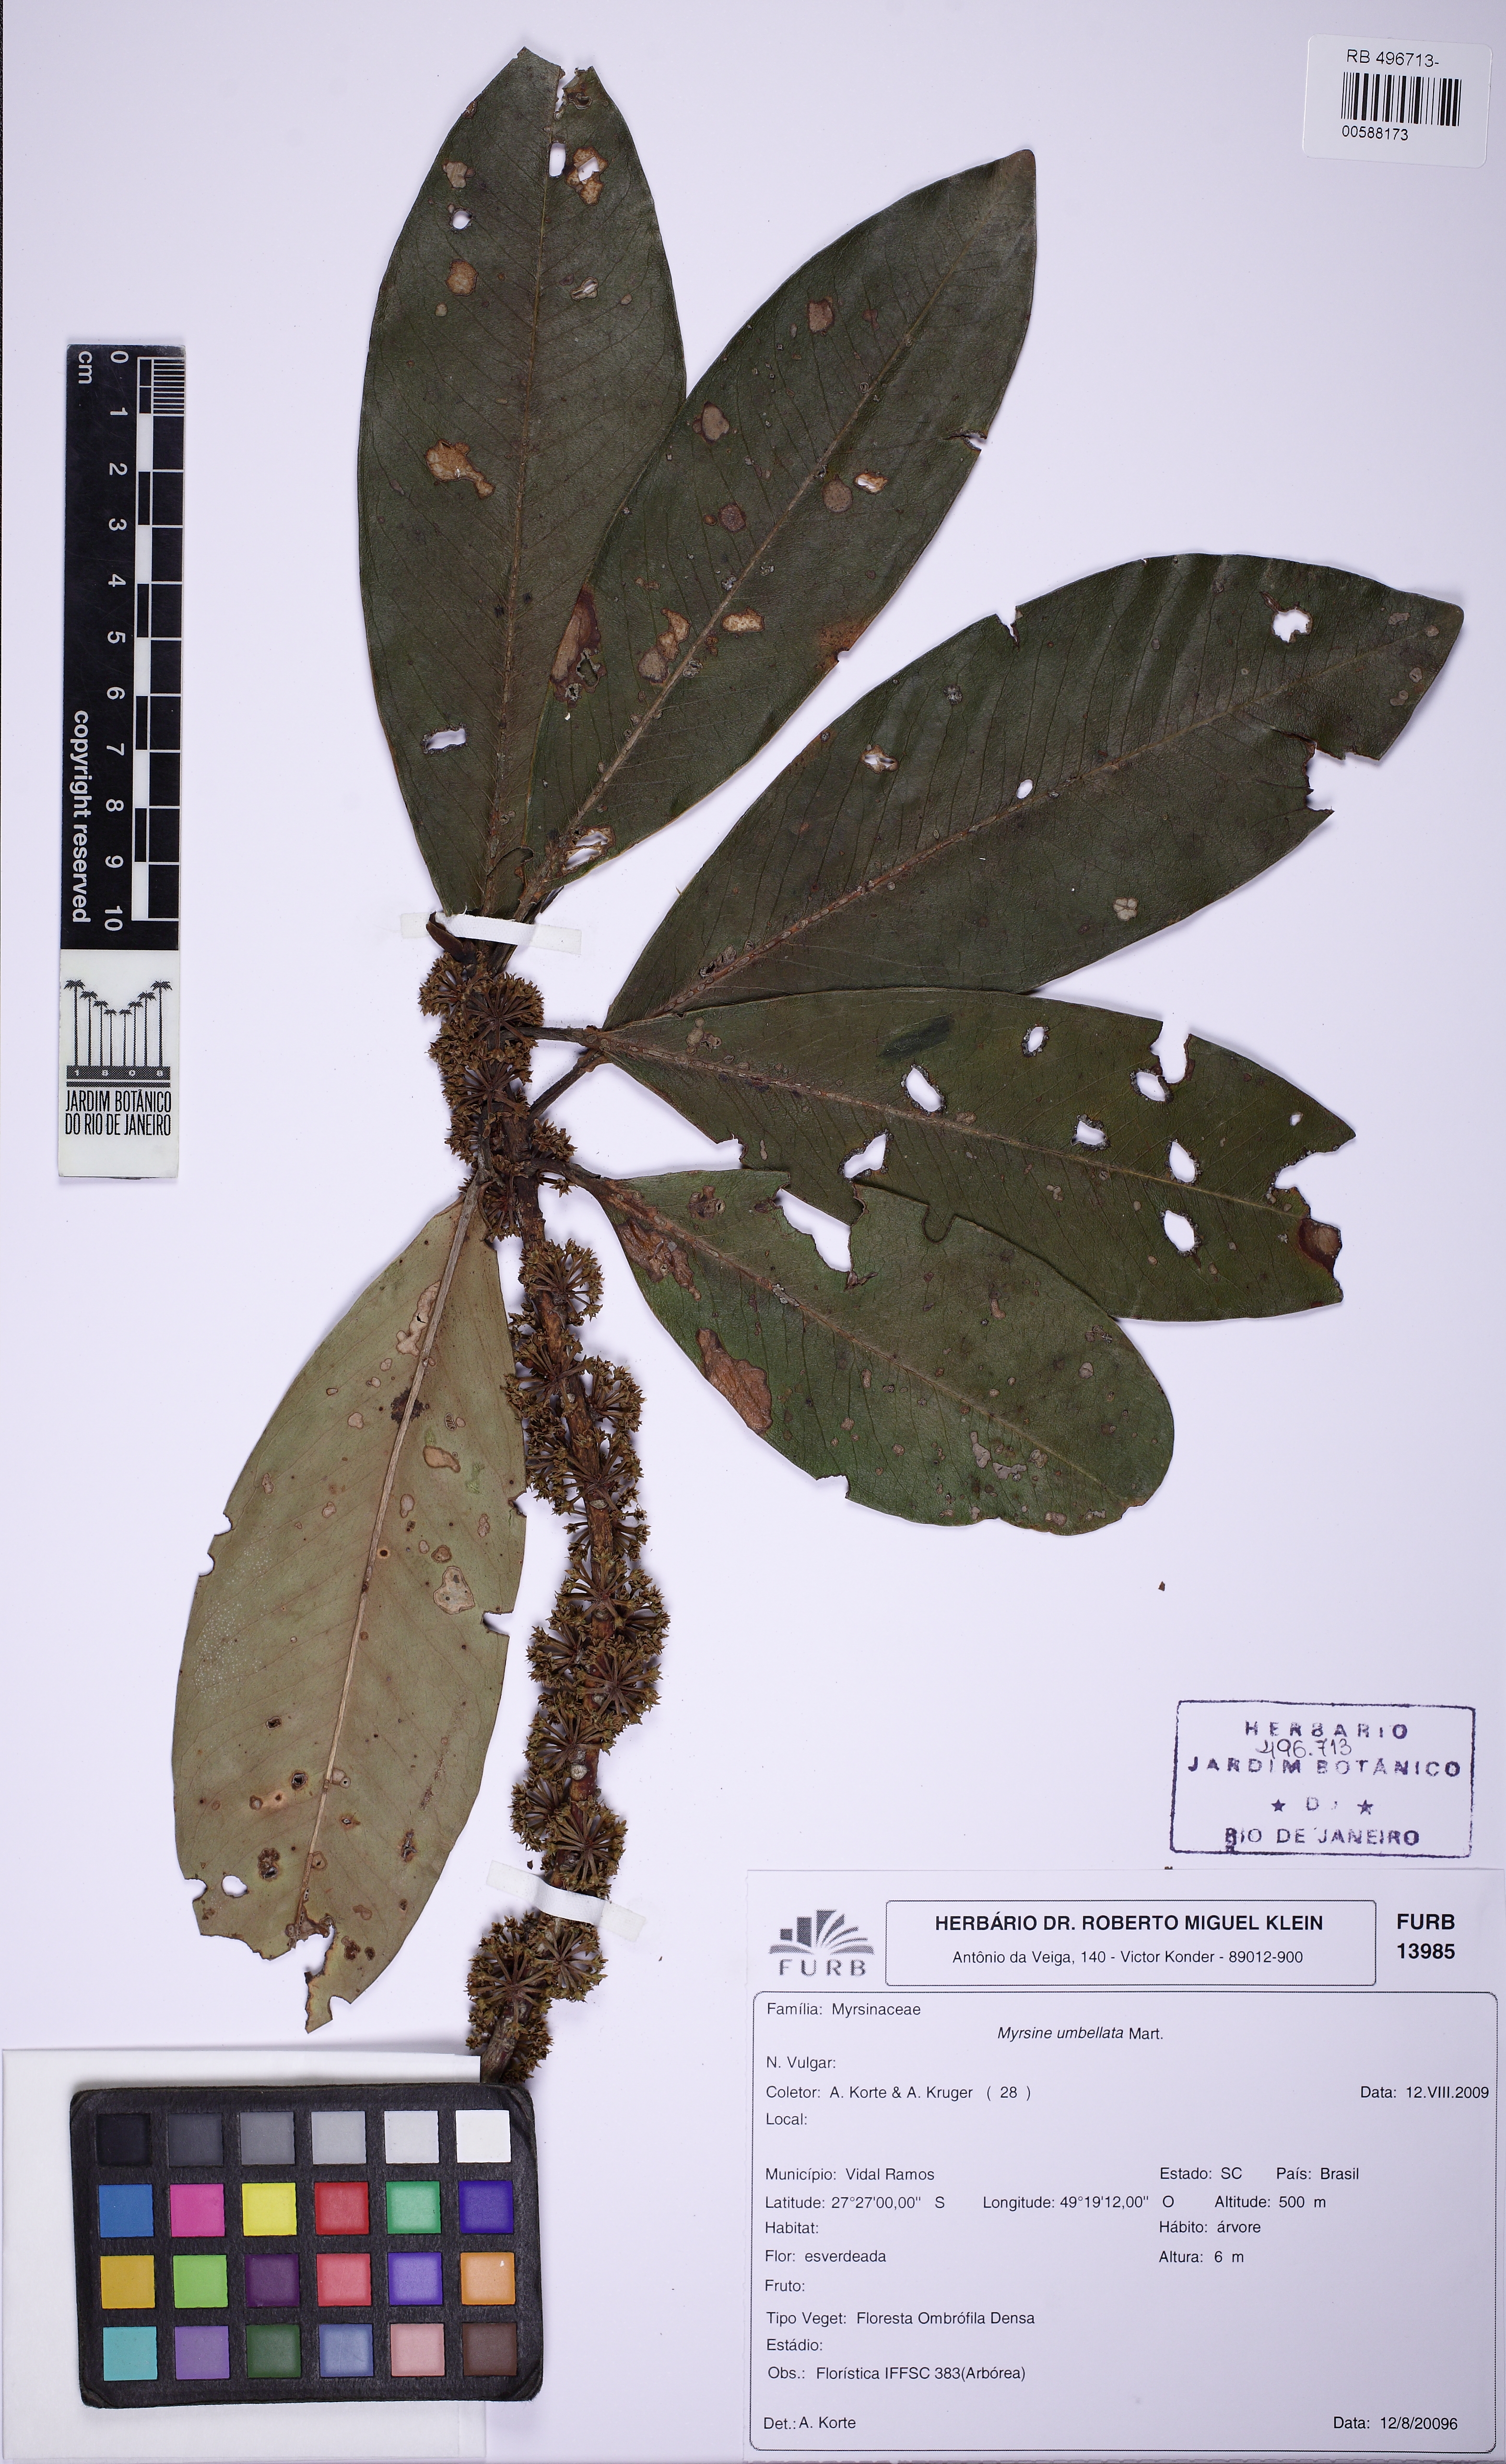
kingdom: Plantae
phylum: Tracheophyta
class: Magnoliopsida
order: Ericales
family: Primulaceae
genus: Myrsine
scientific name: Myrsine umbellata
